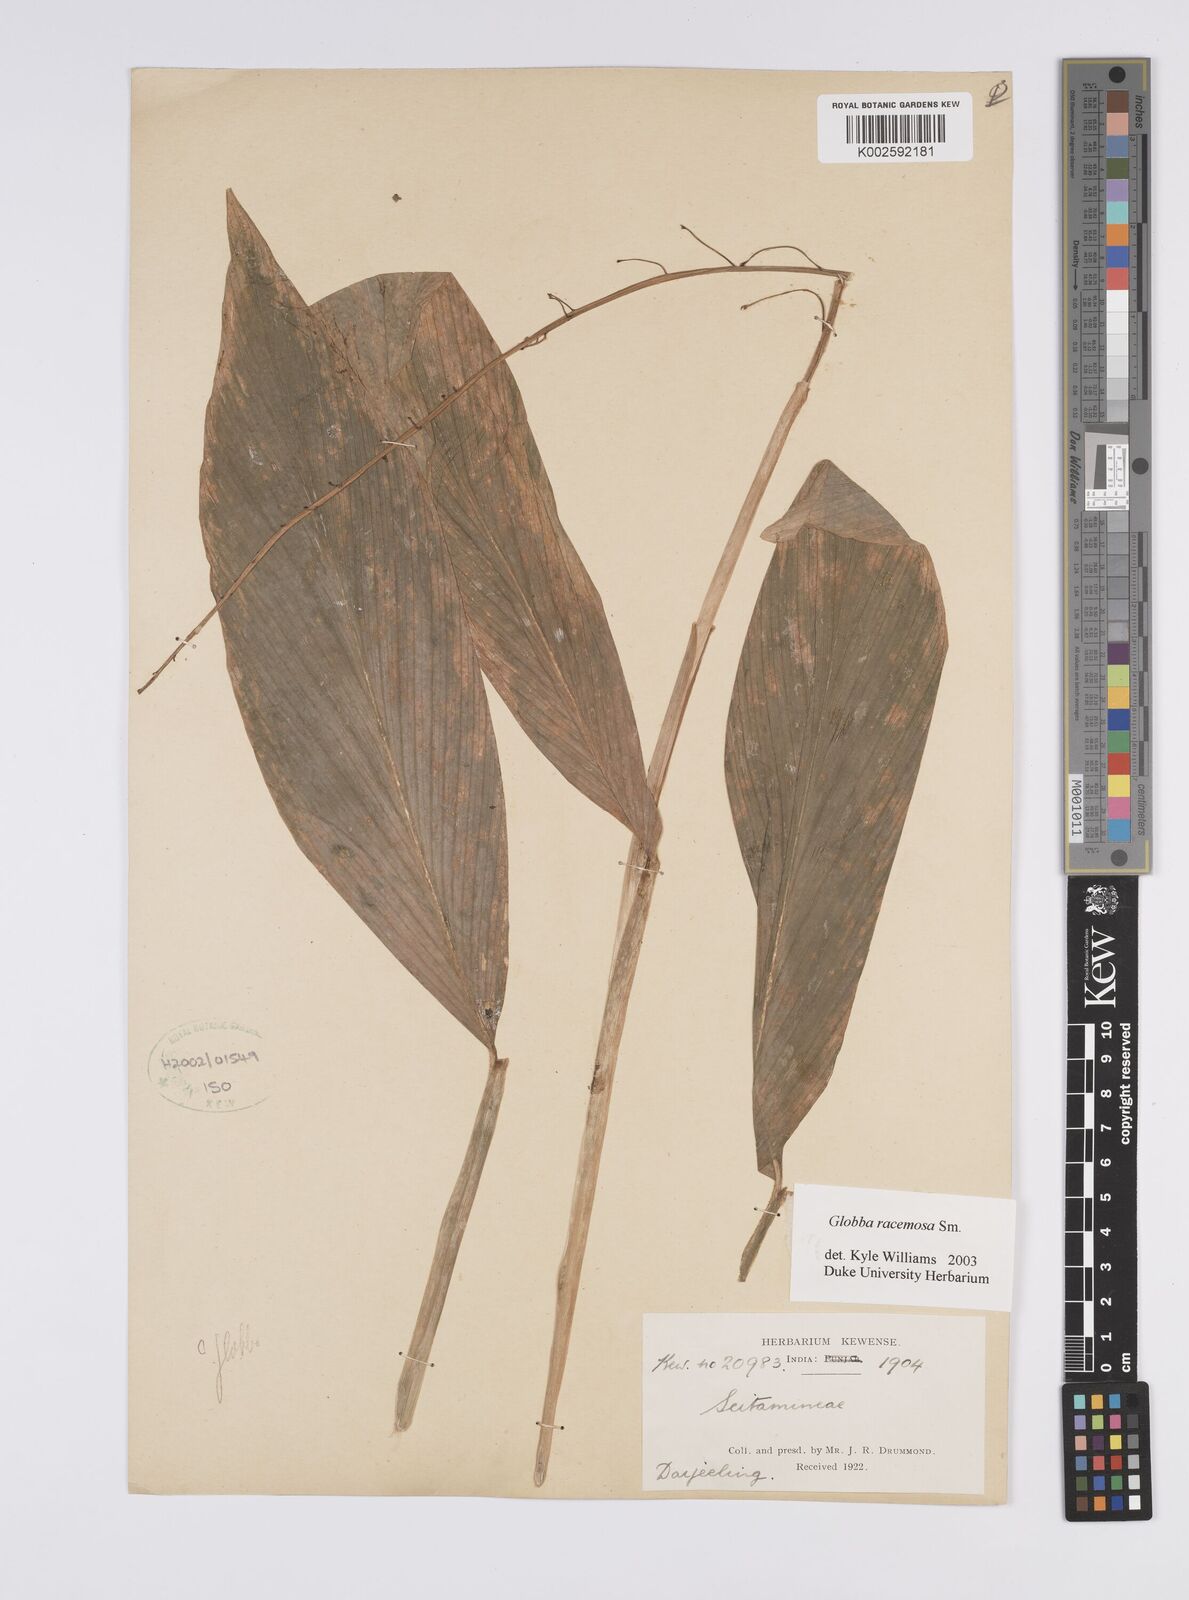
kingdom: Plantae
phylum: Tracheophyta
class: Liliopsida
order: Zingiberales
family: Zingiberaceae
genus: Globba
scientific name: Globba racemosa
